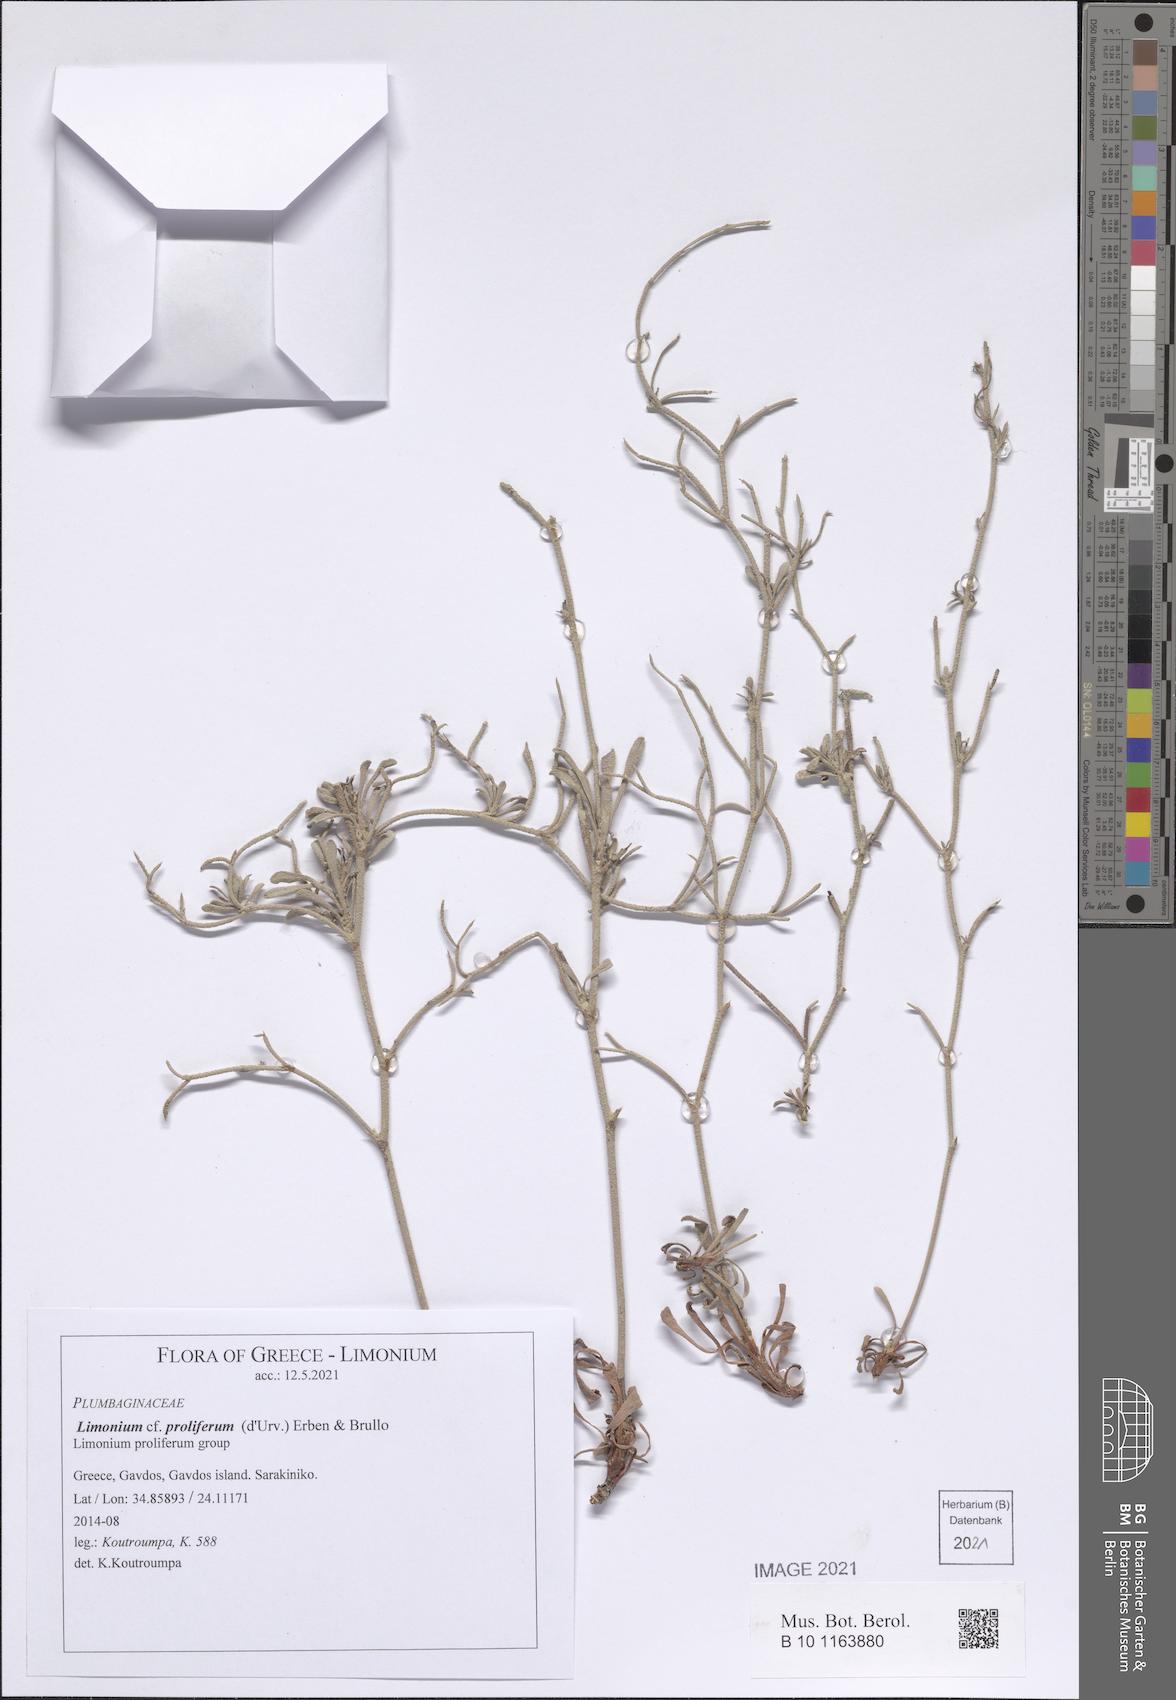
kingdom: Plantae
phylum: Tracheophyta
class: Magnoliopsida
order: Caryophyllales
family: Plumbaginaceae
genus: Limonium
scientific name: Limonium proliferum
